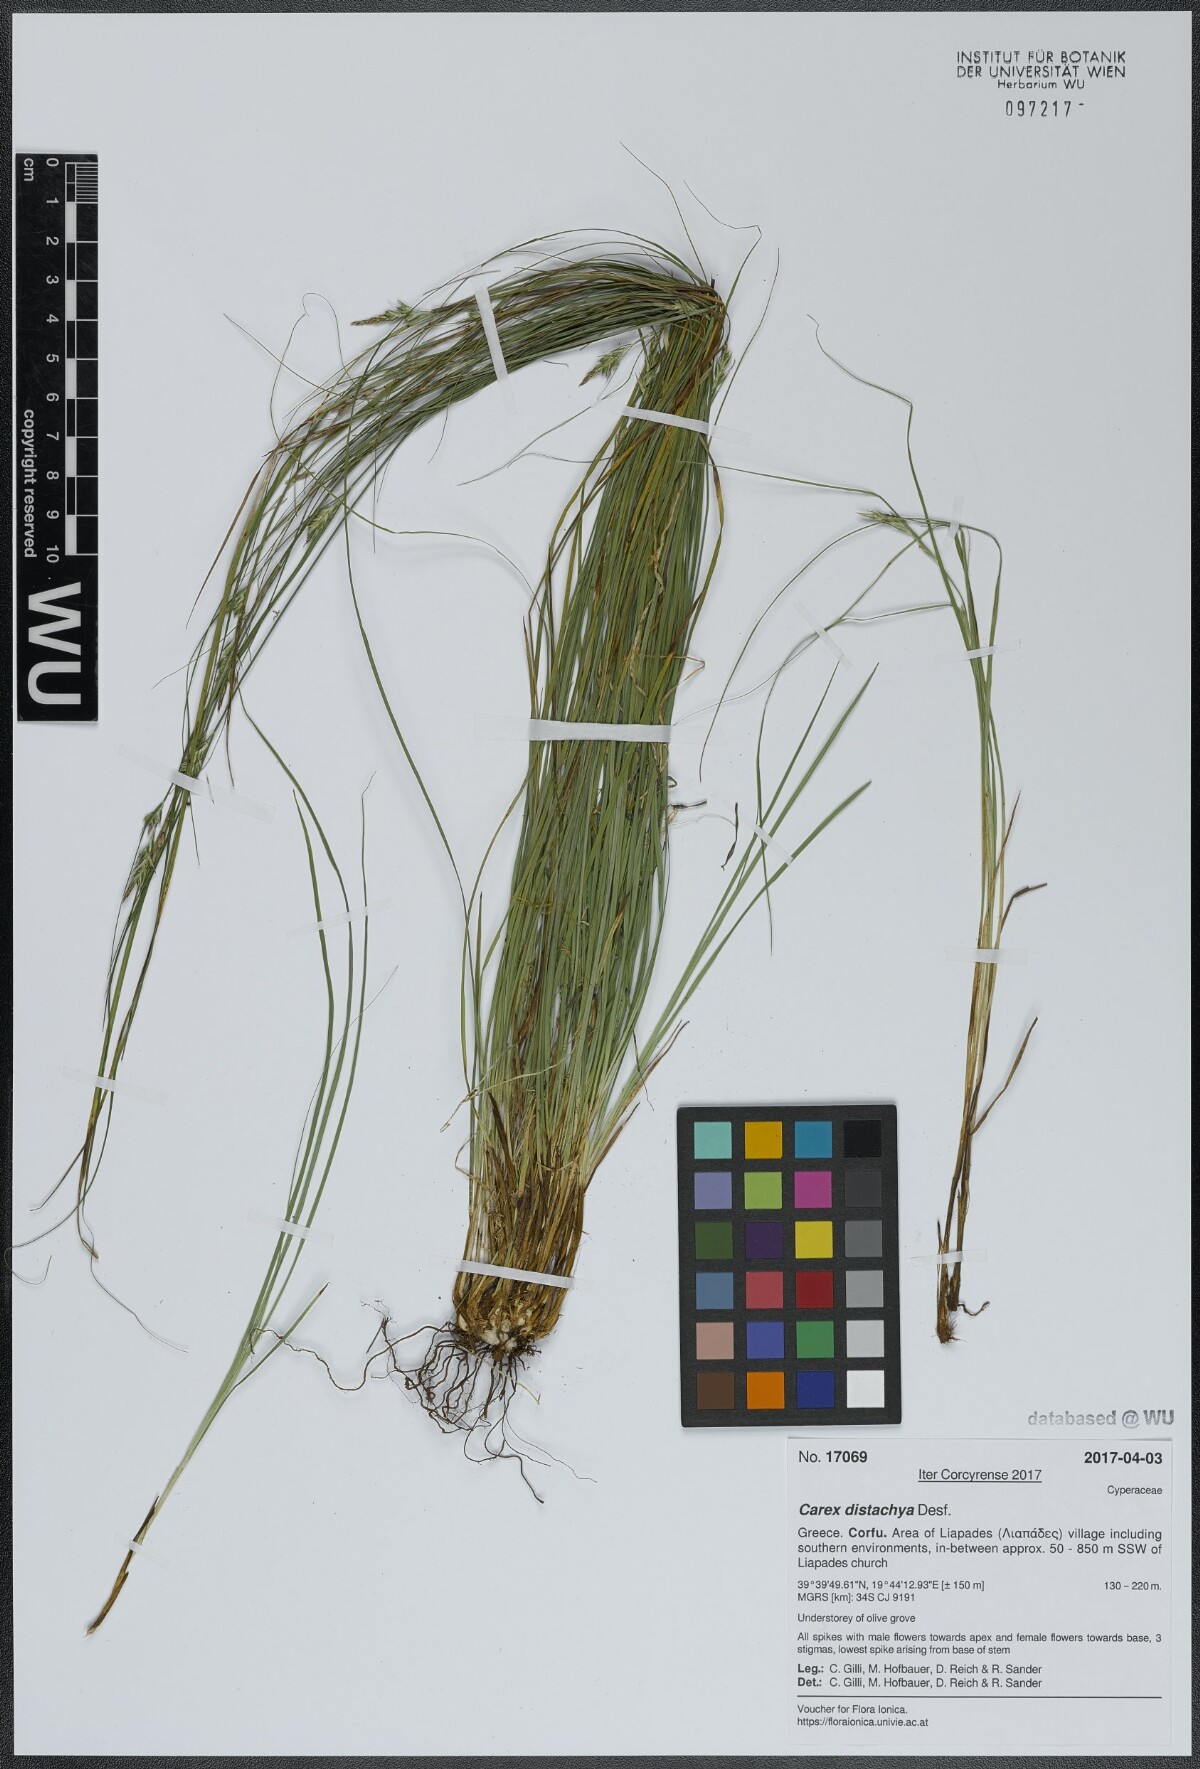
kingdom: Plantae
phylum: Tracheophyta
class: Liliopsida
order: Poales
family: Cyperaceae
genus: Carex
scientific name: Carex distachya
